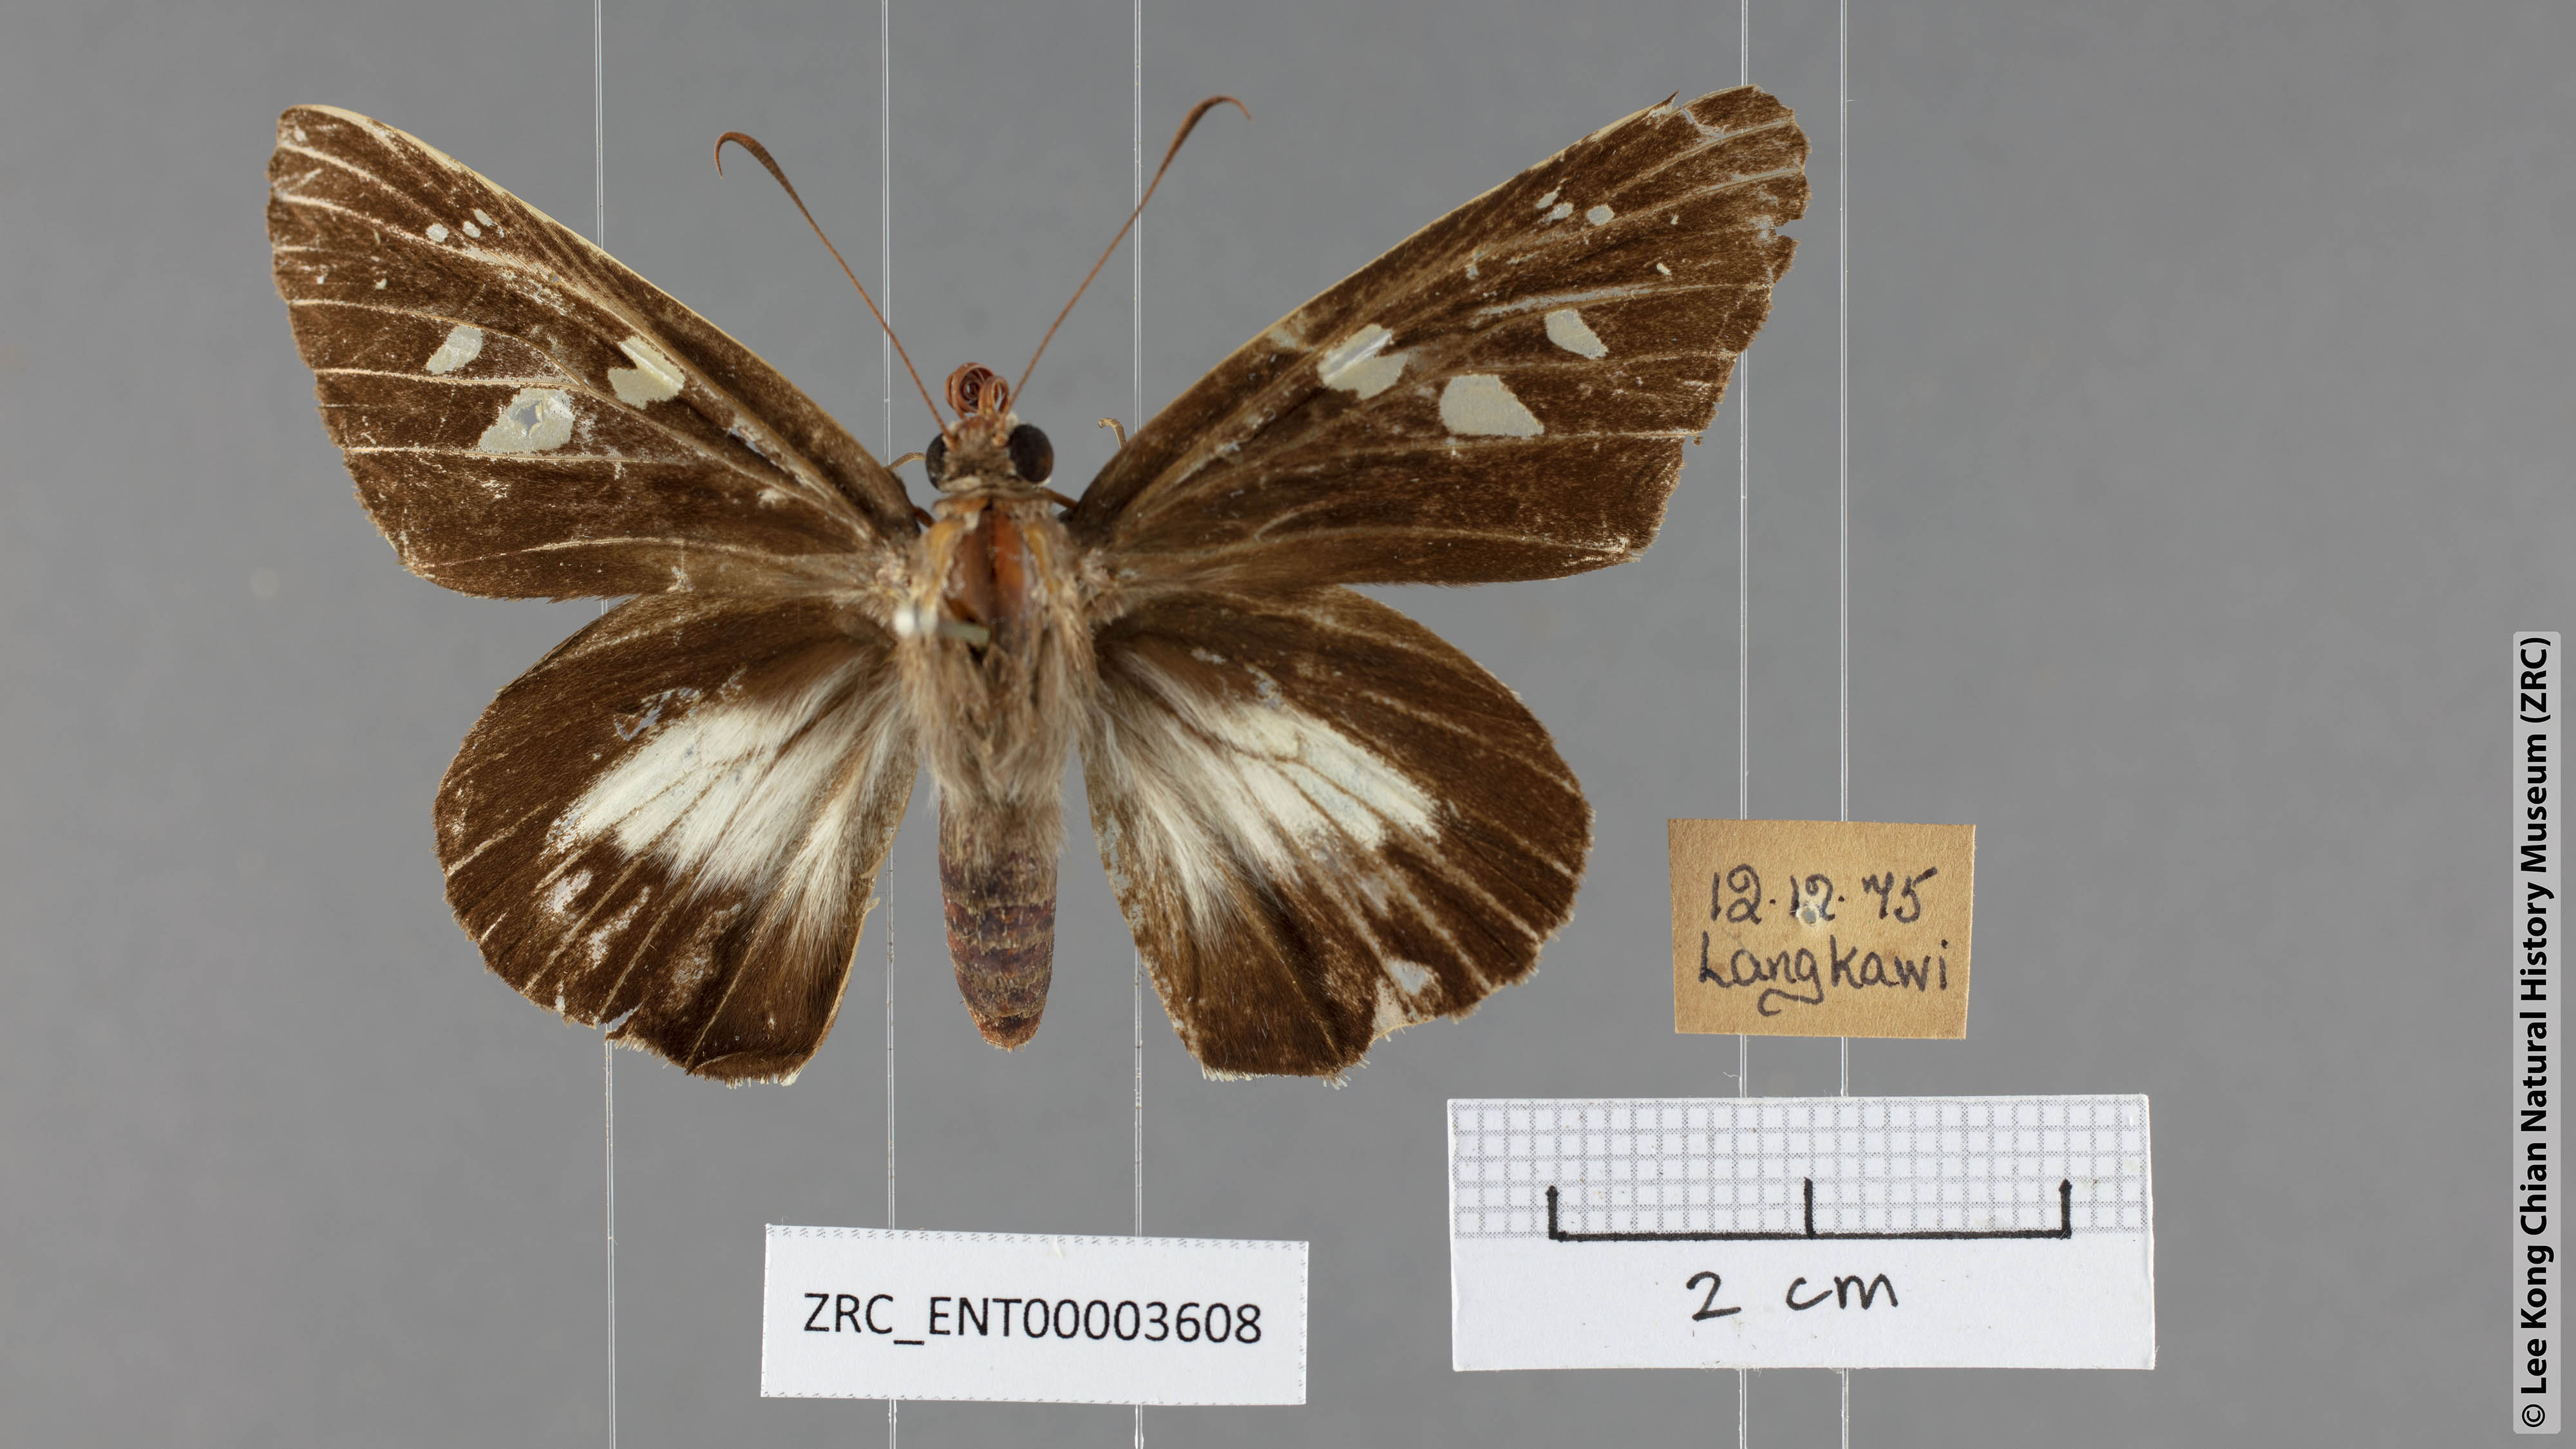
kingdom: Animalia
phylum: Arthropoda
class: Insecta
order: Lepidoptera
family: Hesperiidae
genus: Unkana
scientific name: Unkana ambasa
